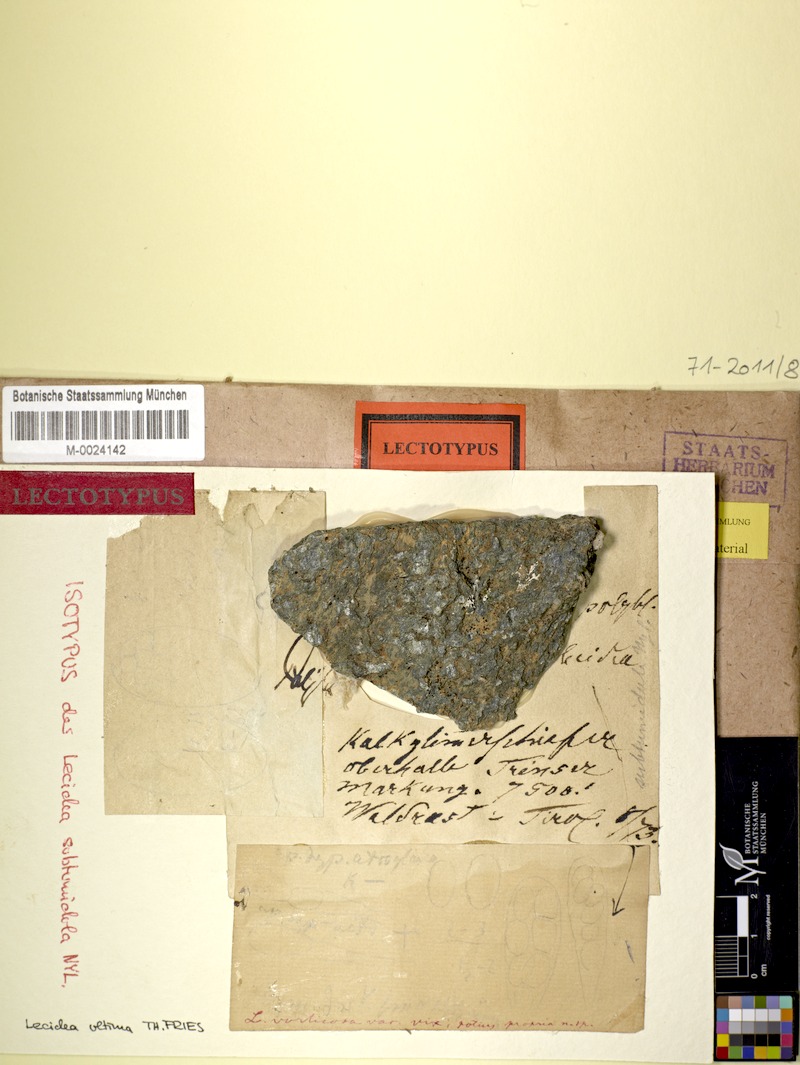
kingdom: Fungi
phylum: Ascomycota
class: Lecanoromycetes
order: Teloschistales
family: Teloschistaceae
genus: Cephalophysis
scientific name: Cephalophysis leucospila
